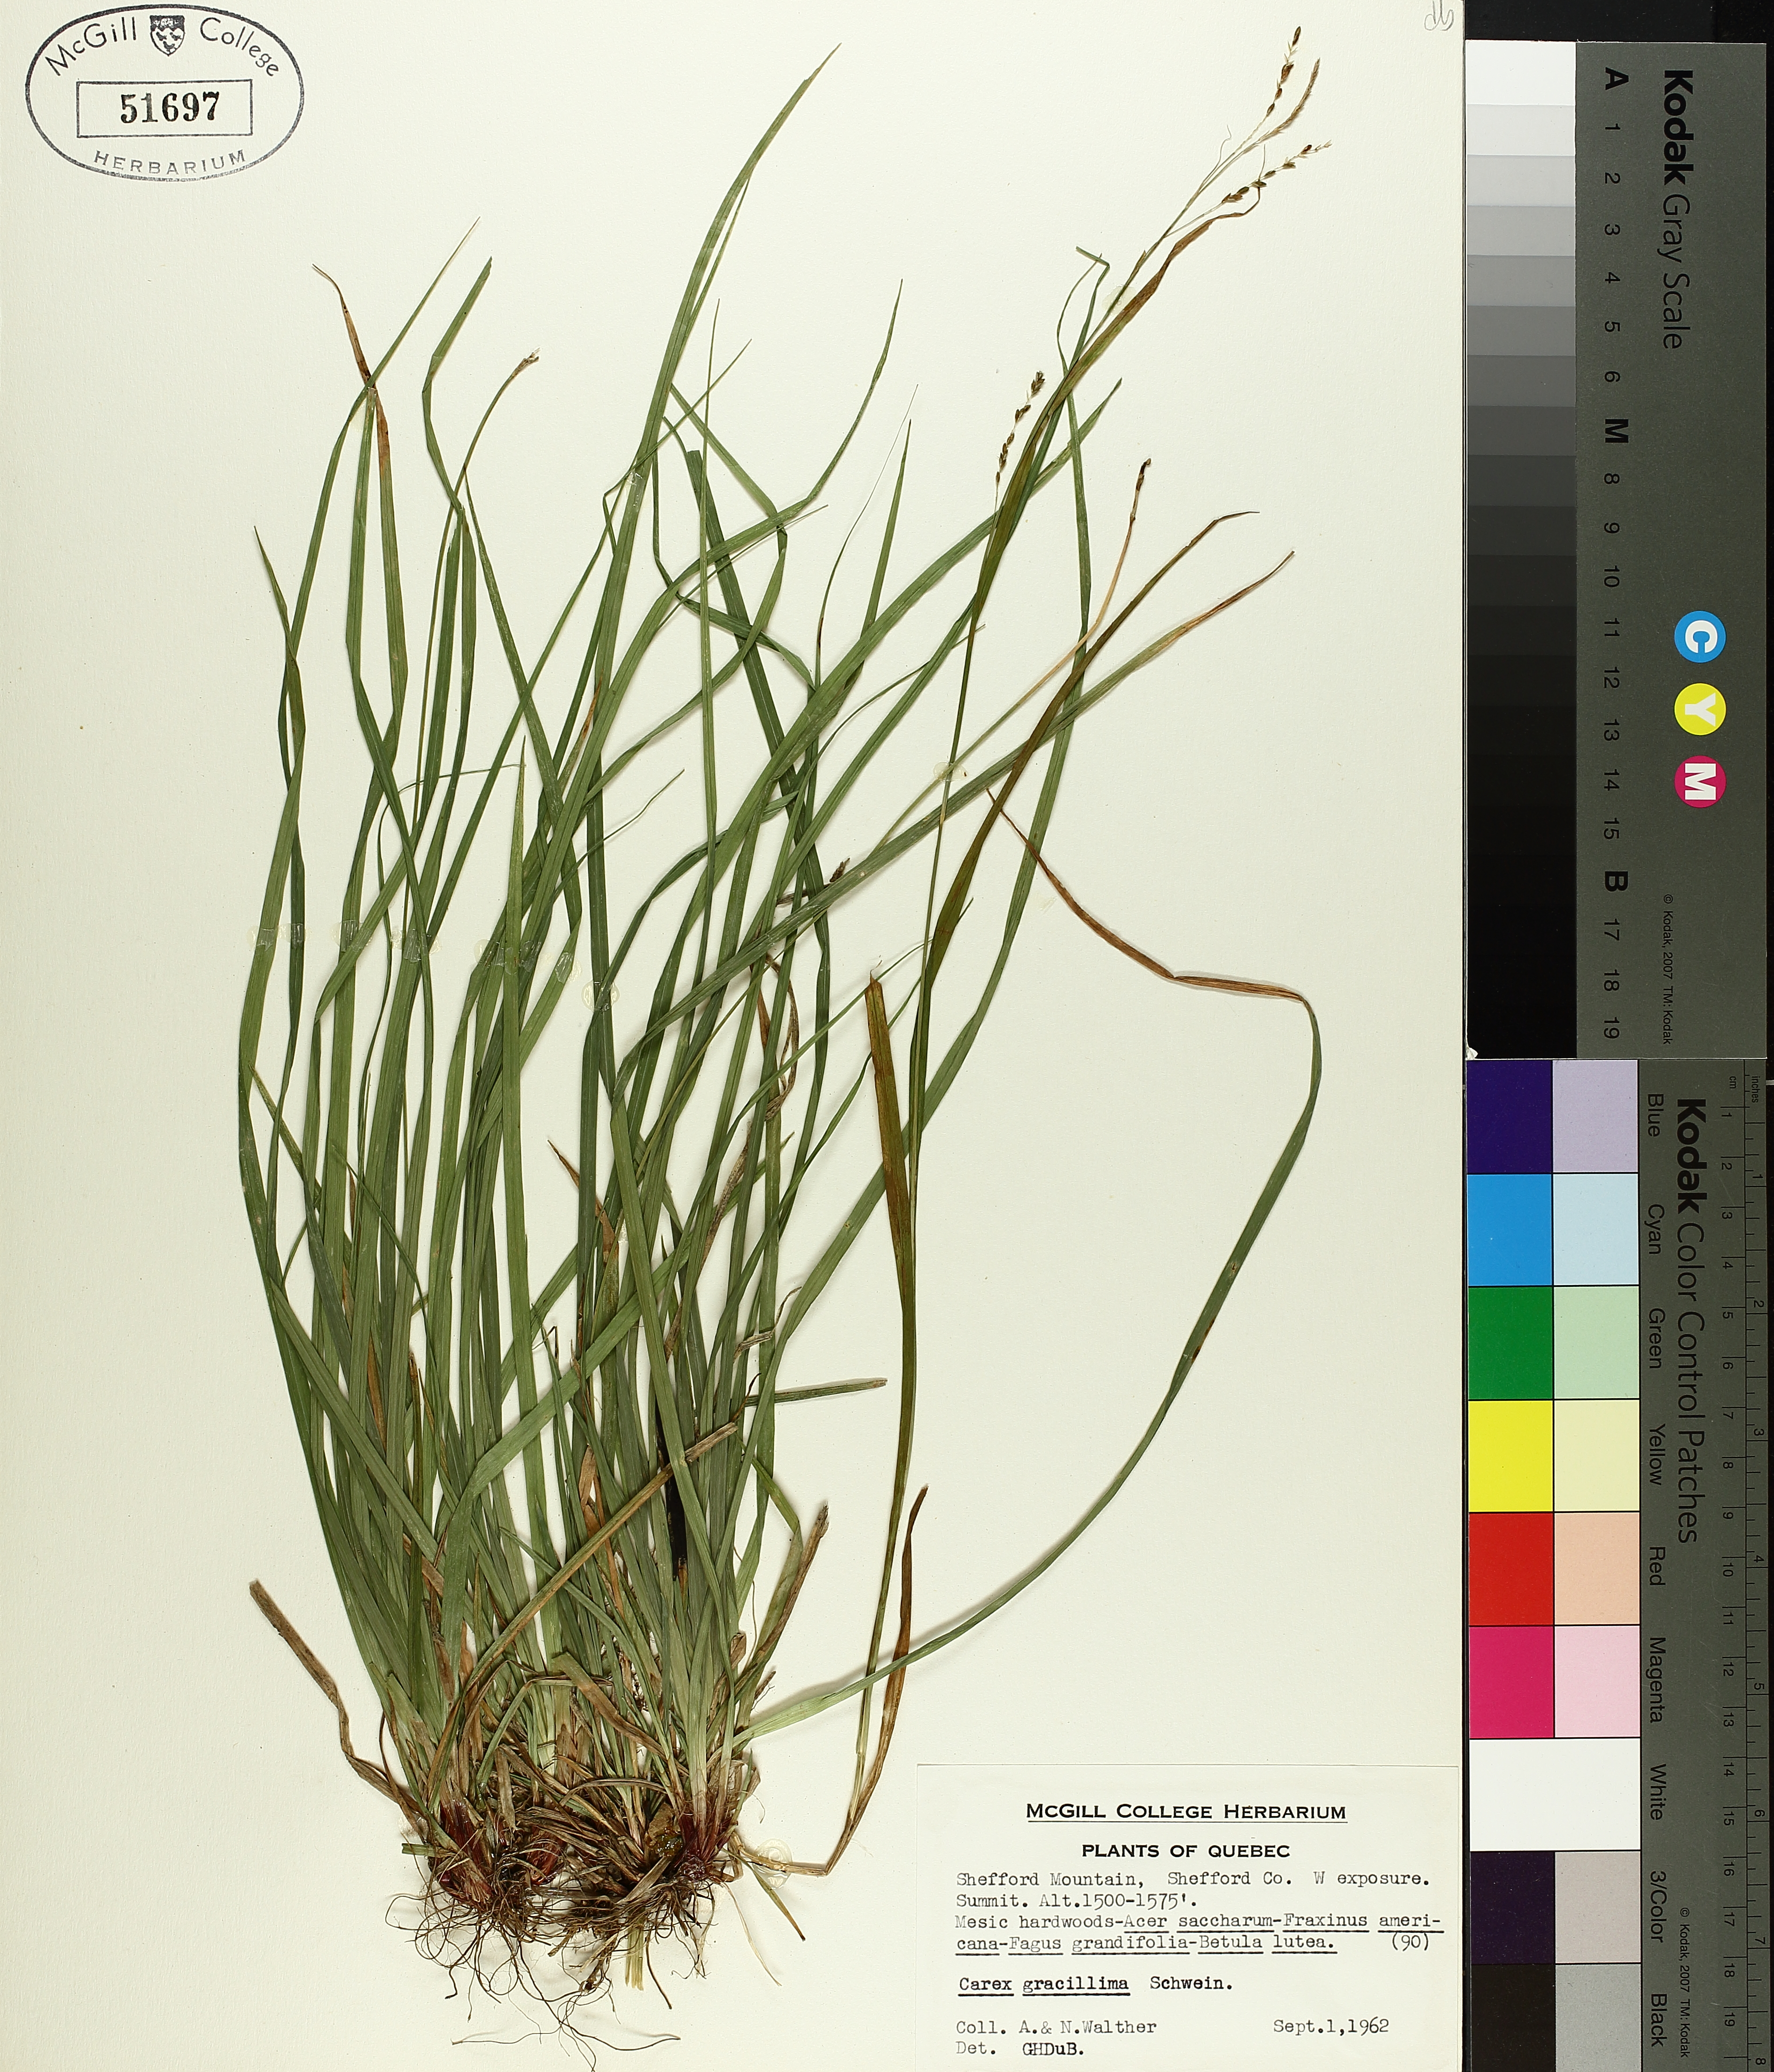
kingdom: Plantae
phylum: Tracheophyta
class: Liliopsida
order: Poales
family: Cyperaceae
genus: Carex
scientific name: Carex gracillima
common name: Graceful sedge
